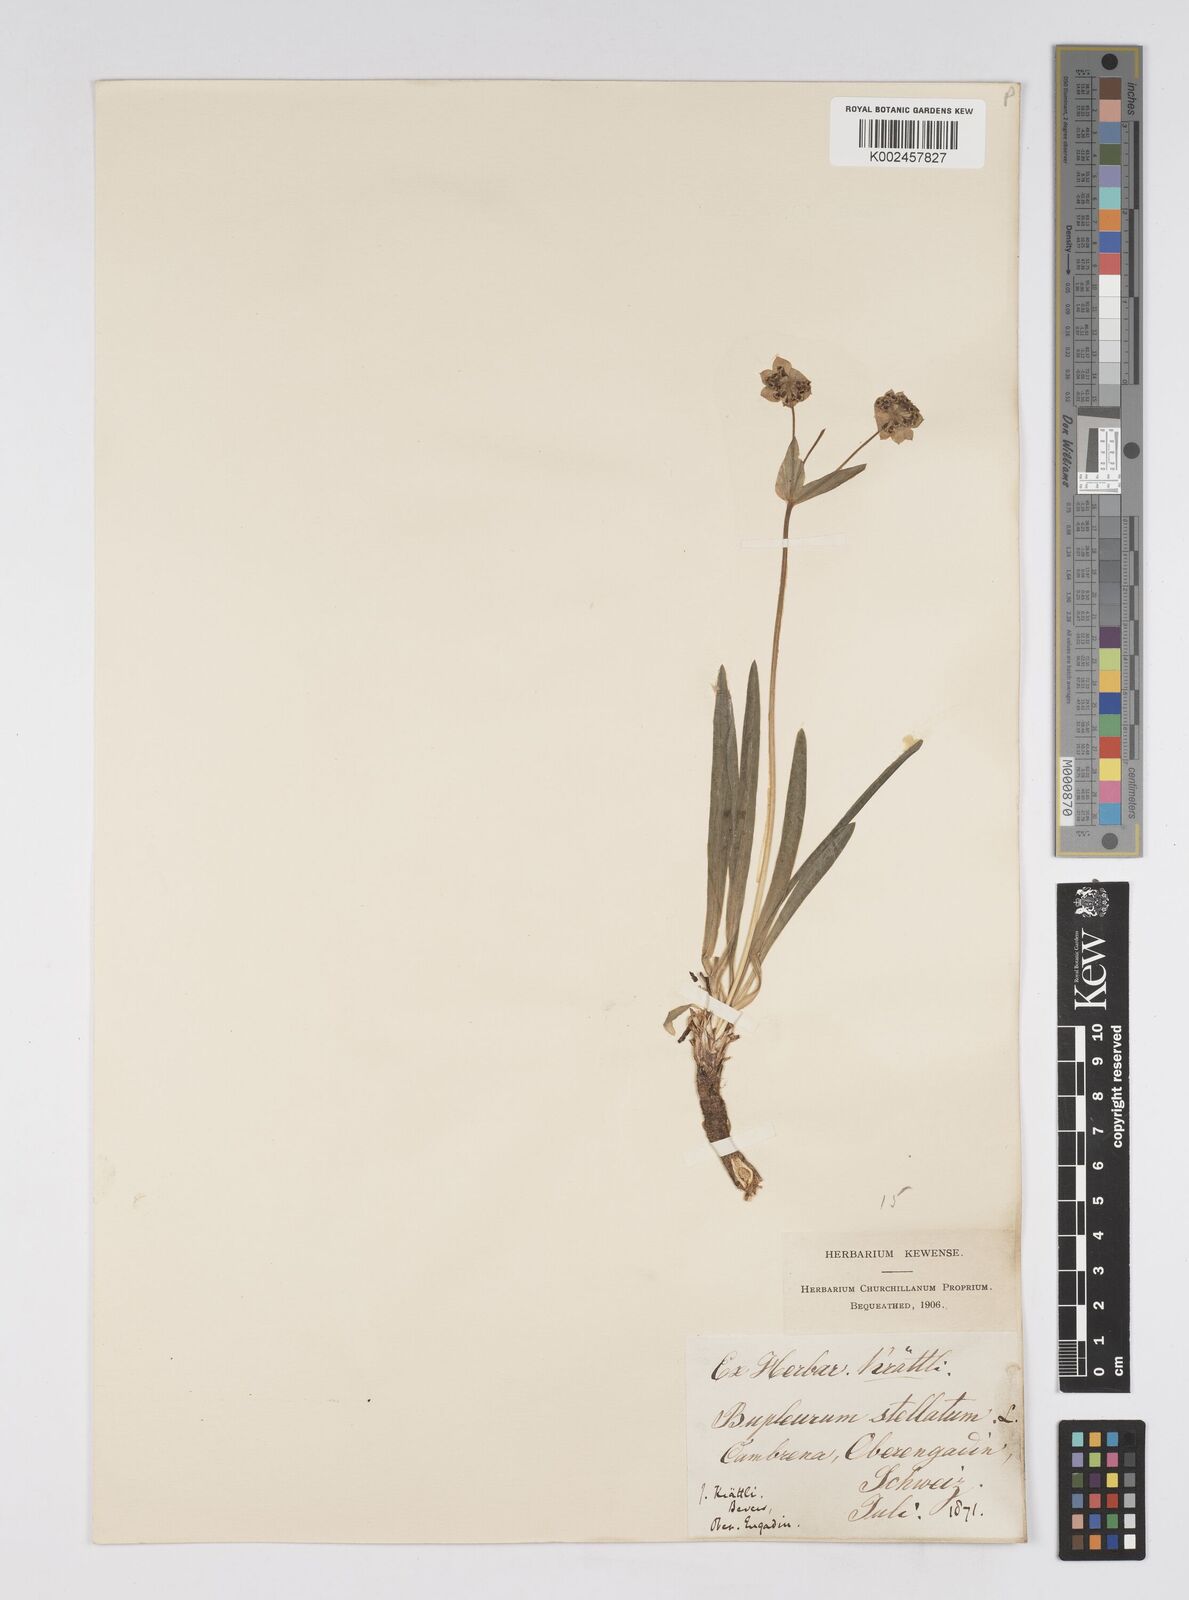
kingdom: Plantae
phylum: Tracheophyta
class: Magnoliopsida
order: Apiales
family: Apiaceae
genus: Bupleurum
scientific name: Bupleurum stellatum
